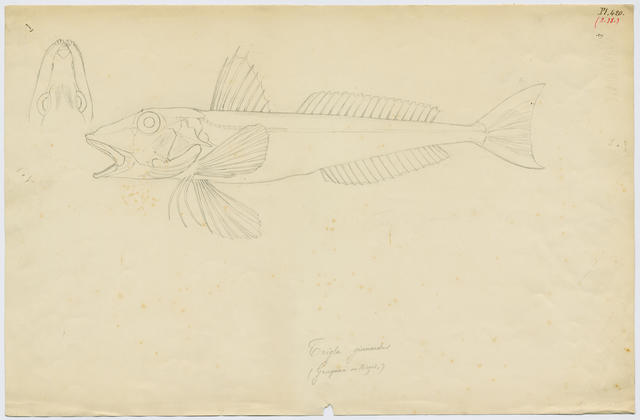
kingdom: Animalia
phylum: Chordata
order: Scorpaeniformes
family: Triglidae
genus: Eutrigla
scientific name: Eutrigla gurnardus
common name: Grey gurnard
